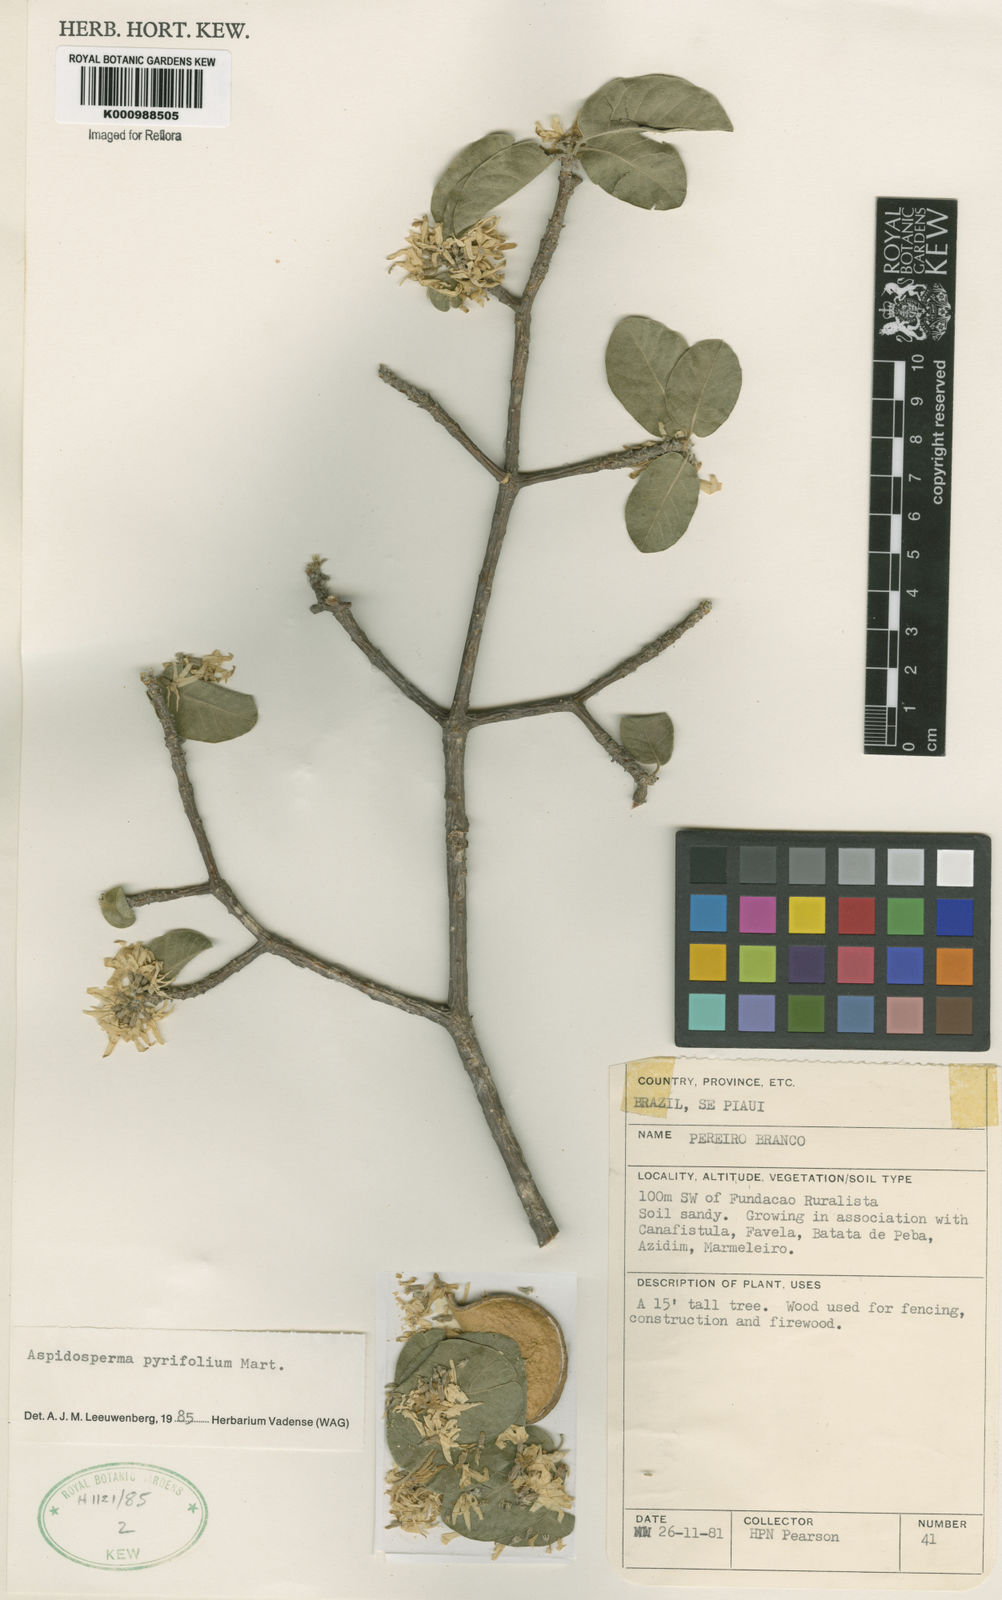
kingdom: Plantae
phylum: Tracheophyta
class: Magnoliopsida
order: Gentianales
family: Apocynaceae
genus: Aspidosperma
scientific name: Aspidosperma pyrifolium
